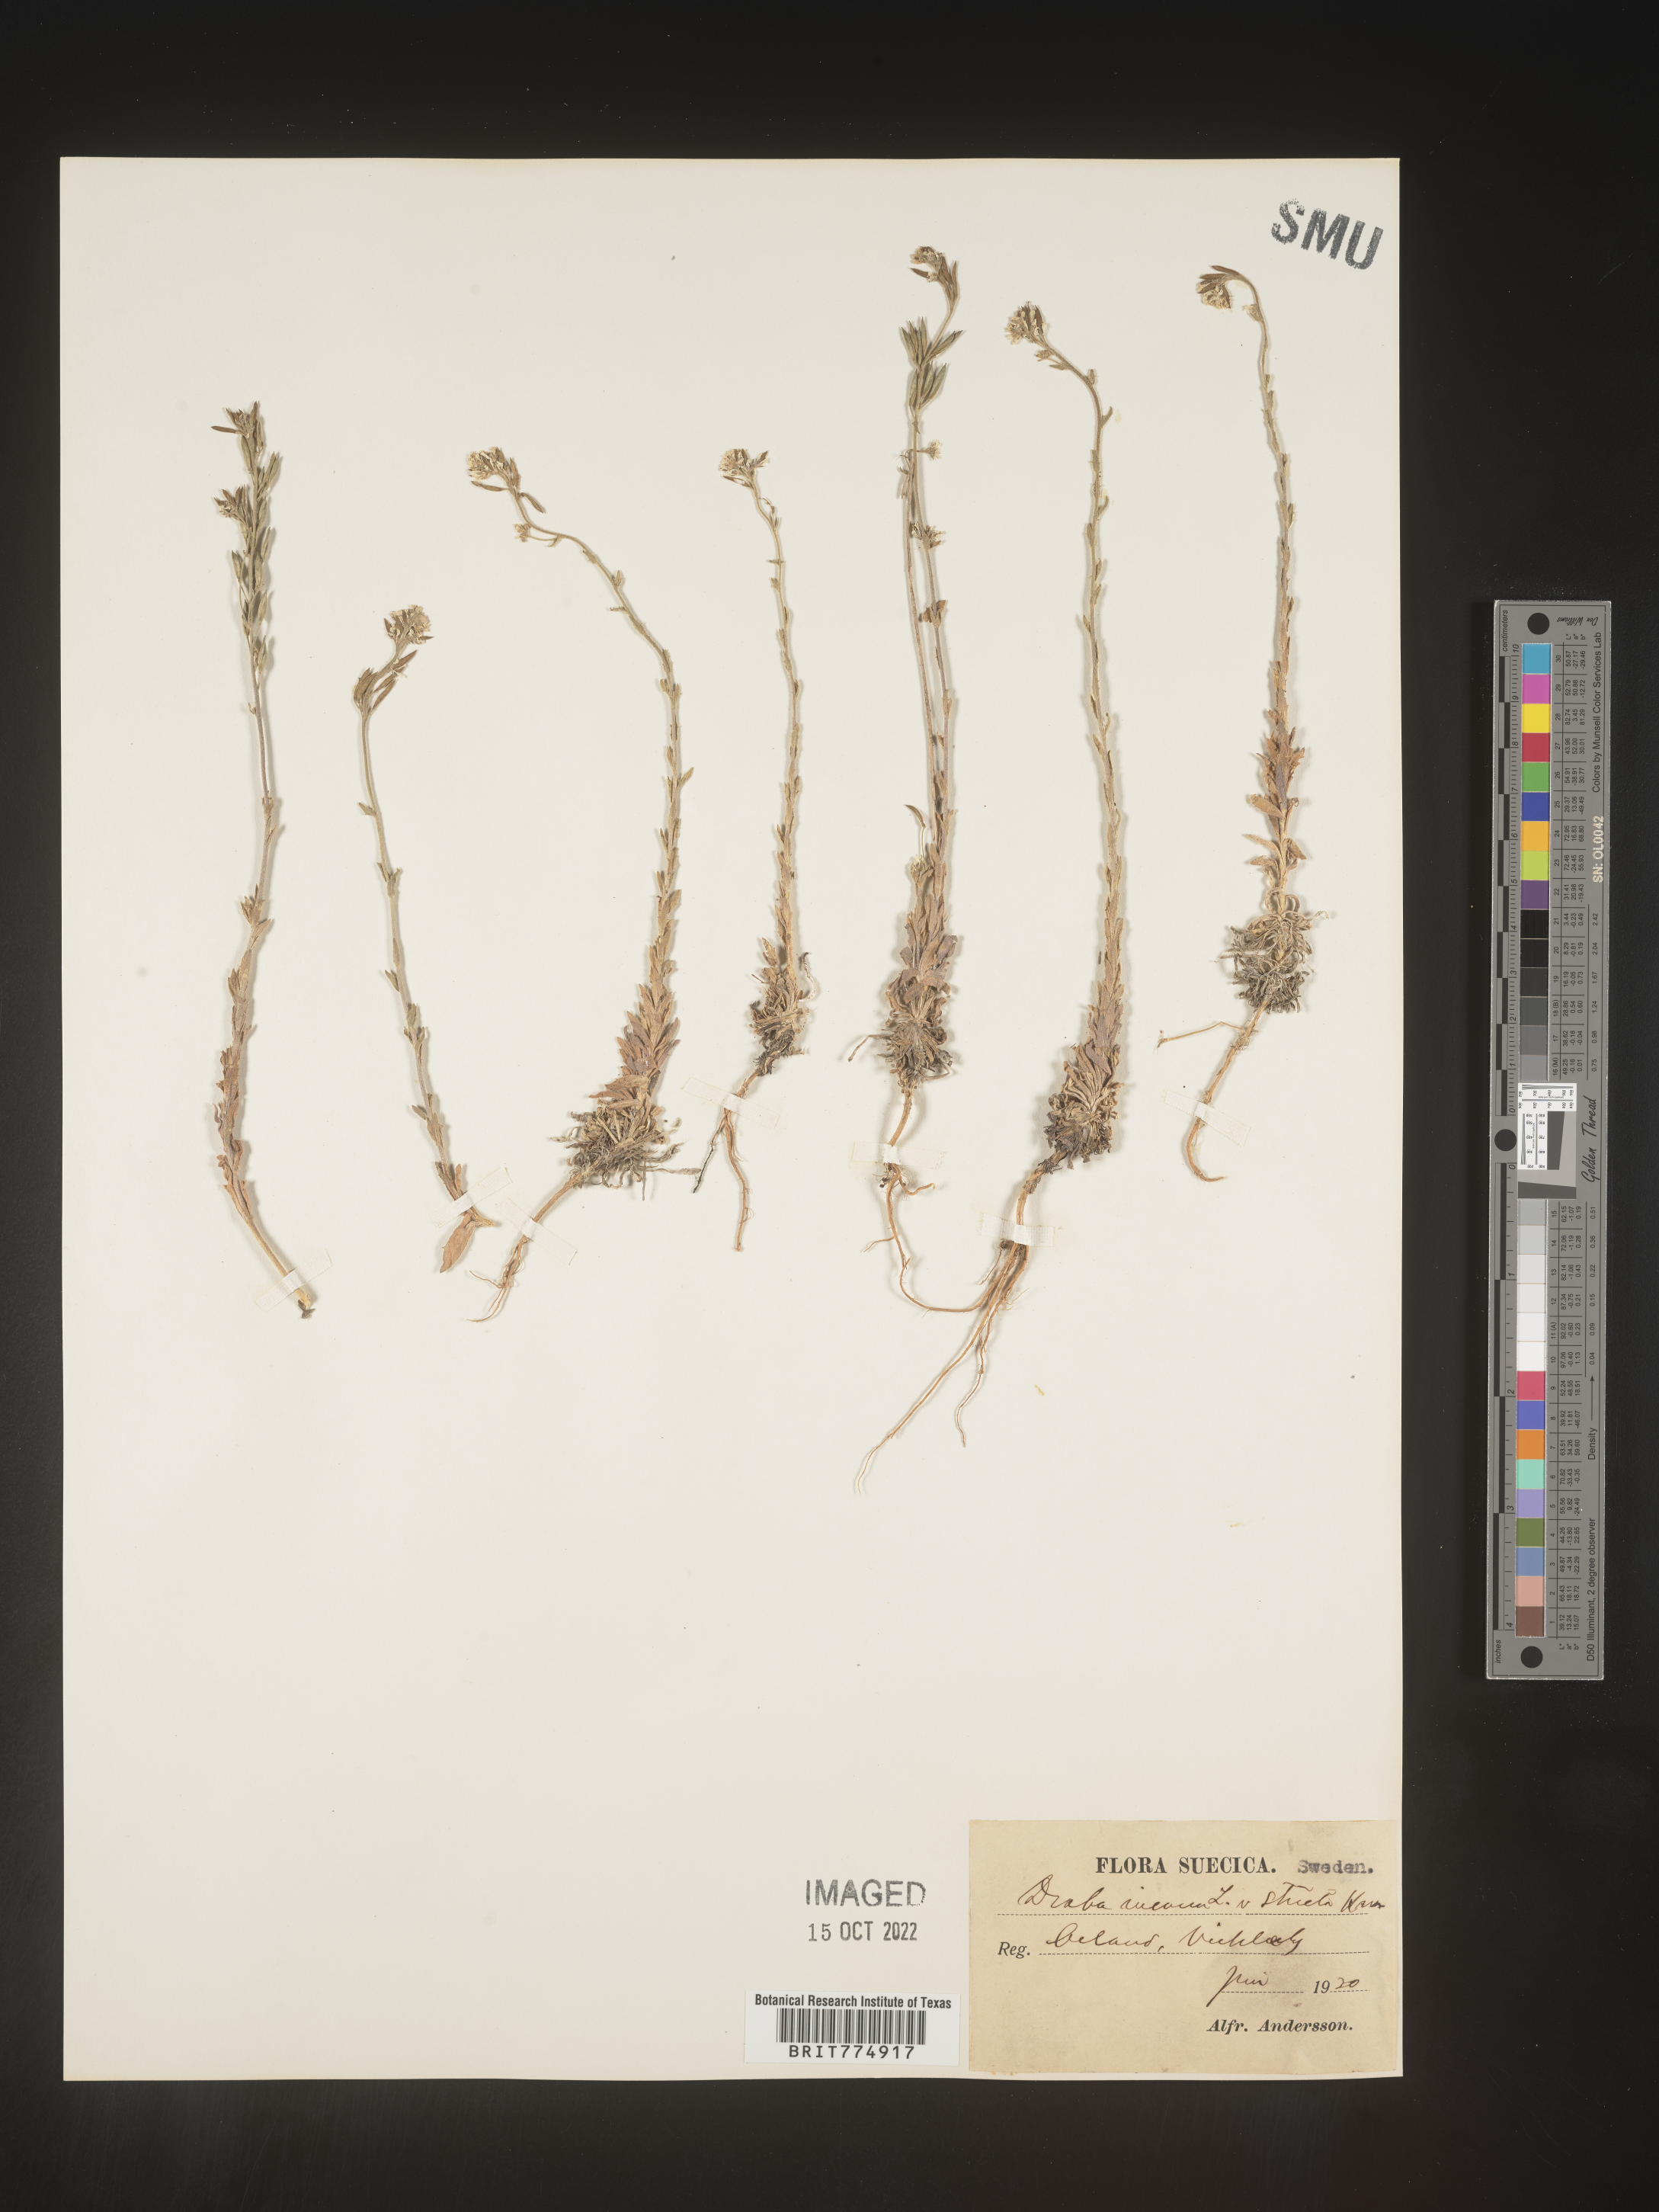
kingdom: Plantae
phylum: Tracheophyta
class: Magnoliopsida
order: Brassicales
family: Brassicaceae
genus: Draba
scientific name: Draba
